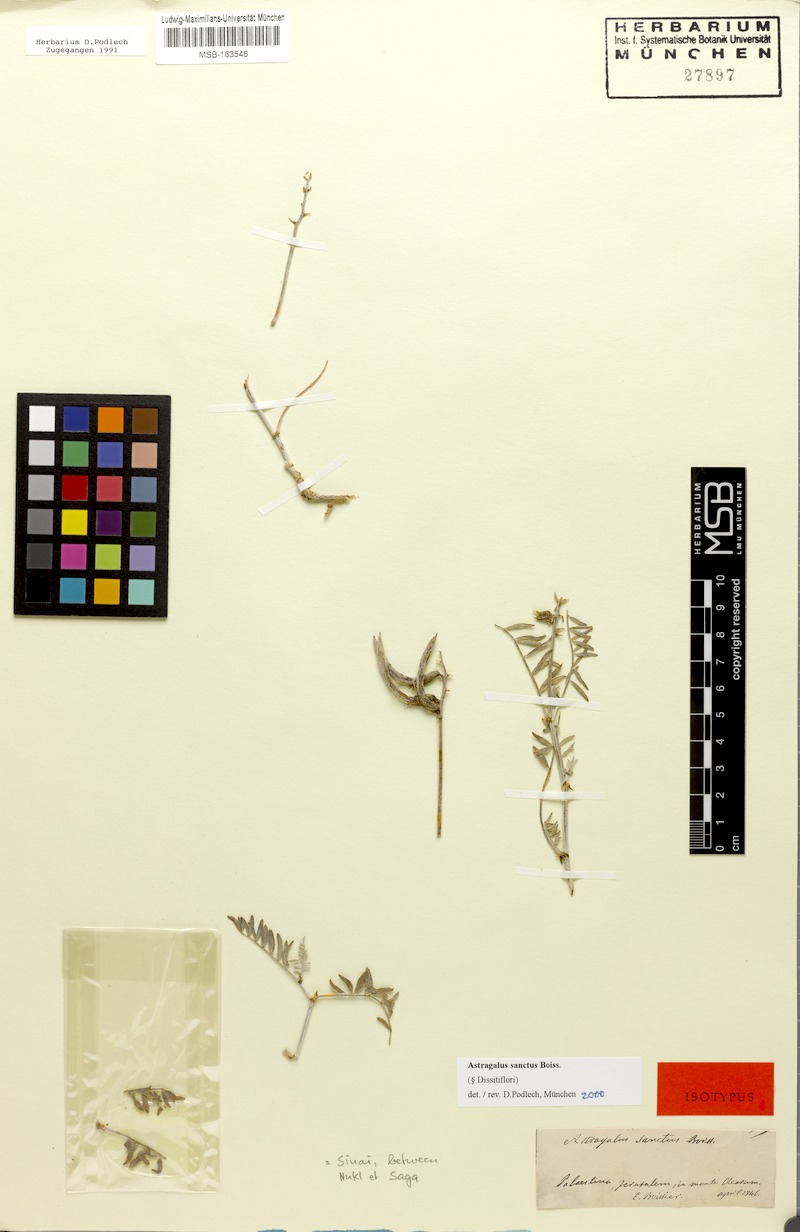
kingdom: Plantae
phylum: Tracheophyta
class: Magnoliopsida
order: Fabales
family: Fabaceae
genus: Astragalus
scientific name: Astragalus sanctus
